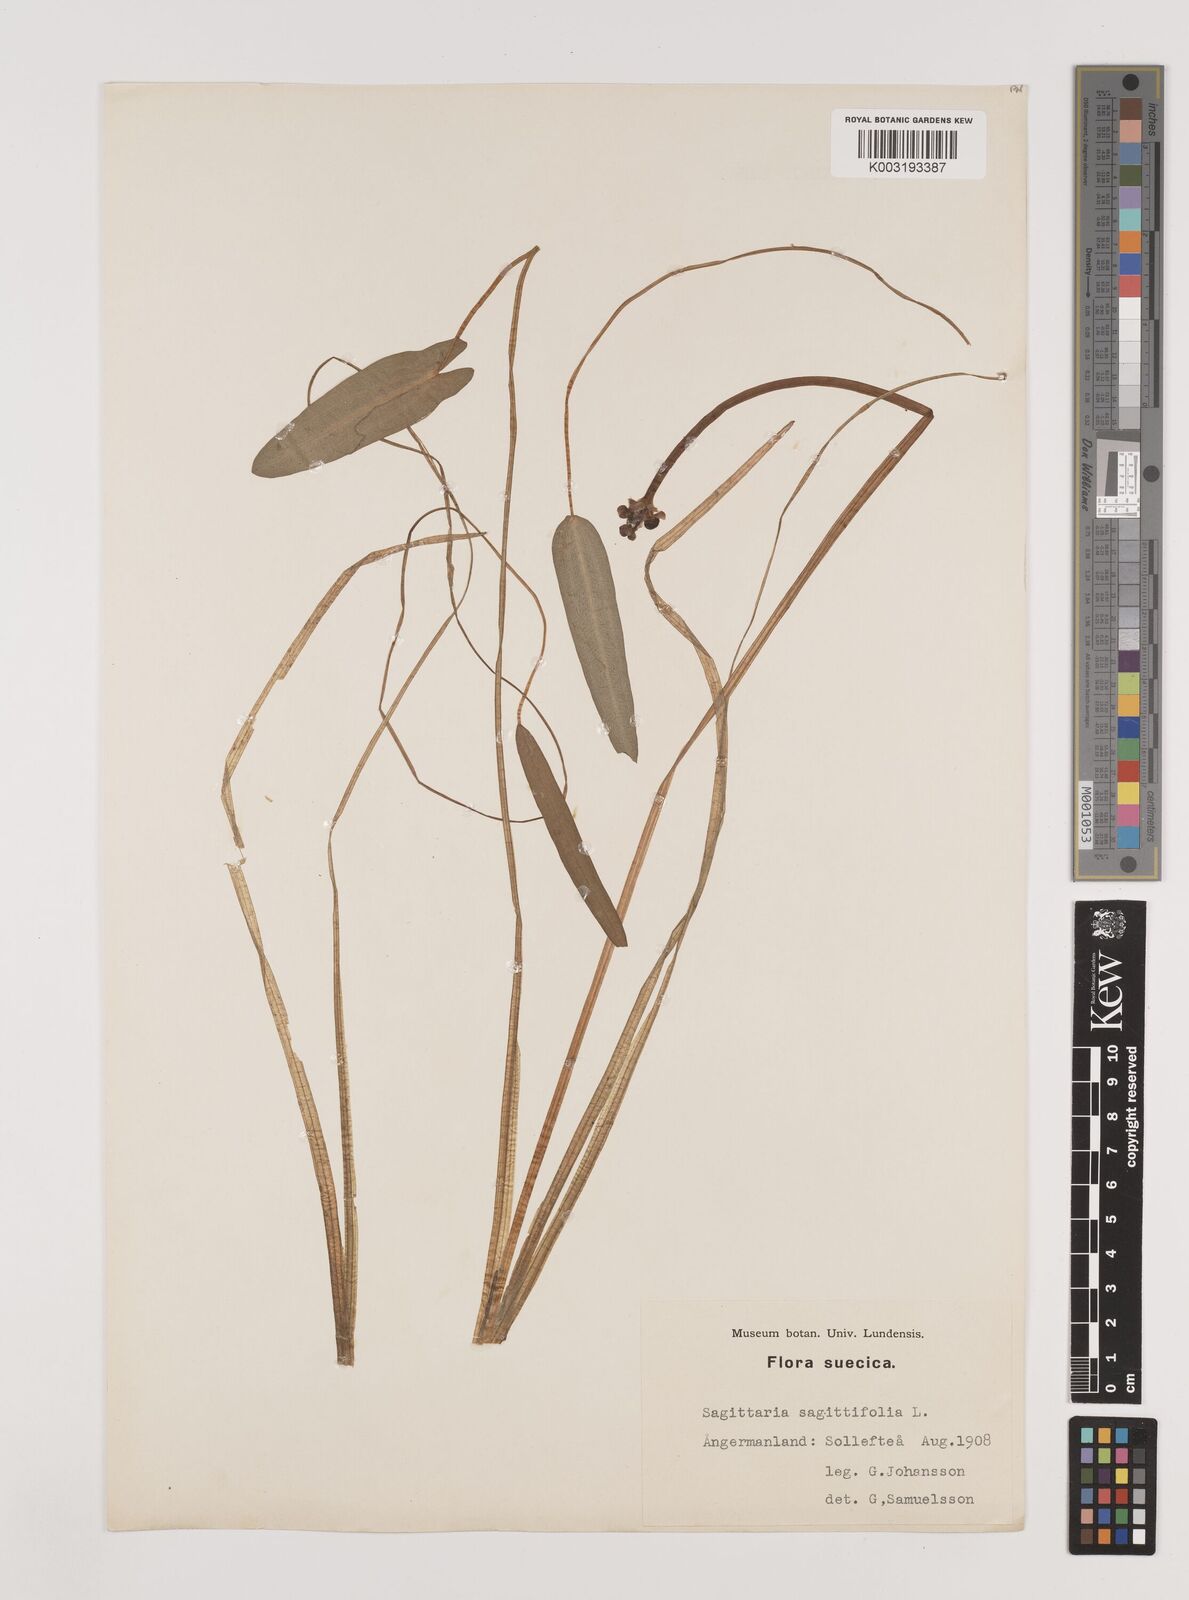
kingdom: Plantae
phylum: Tracheophyta
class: Liliopsida
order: Alismatales
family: Alismataceae
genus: Sagittaria
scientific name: Sagittaria sagittifolia
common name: Arrowhead
